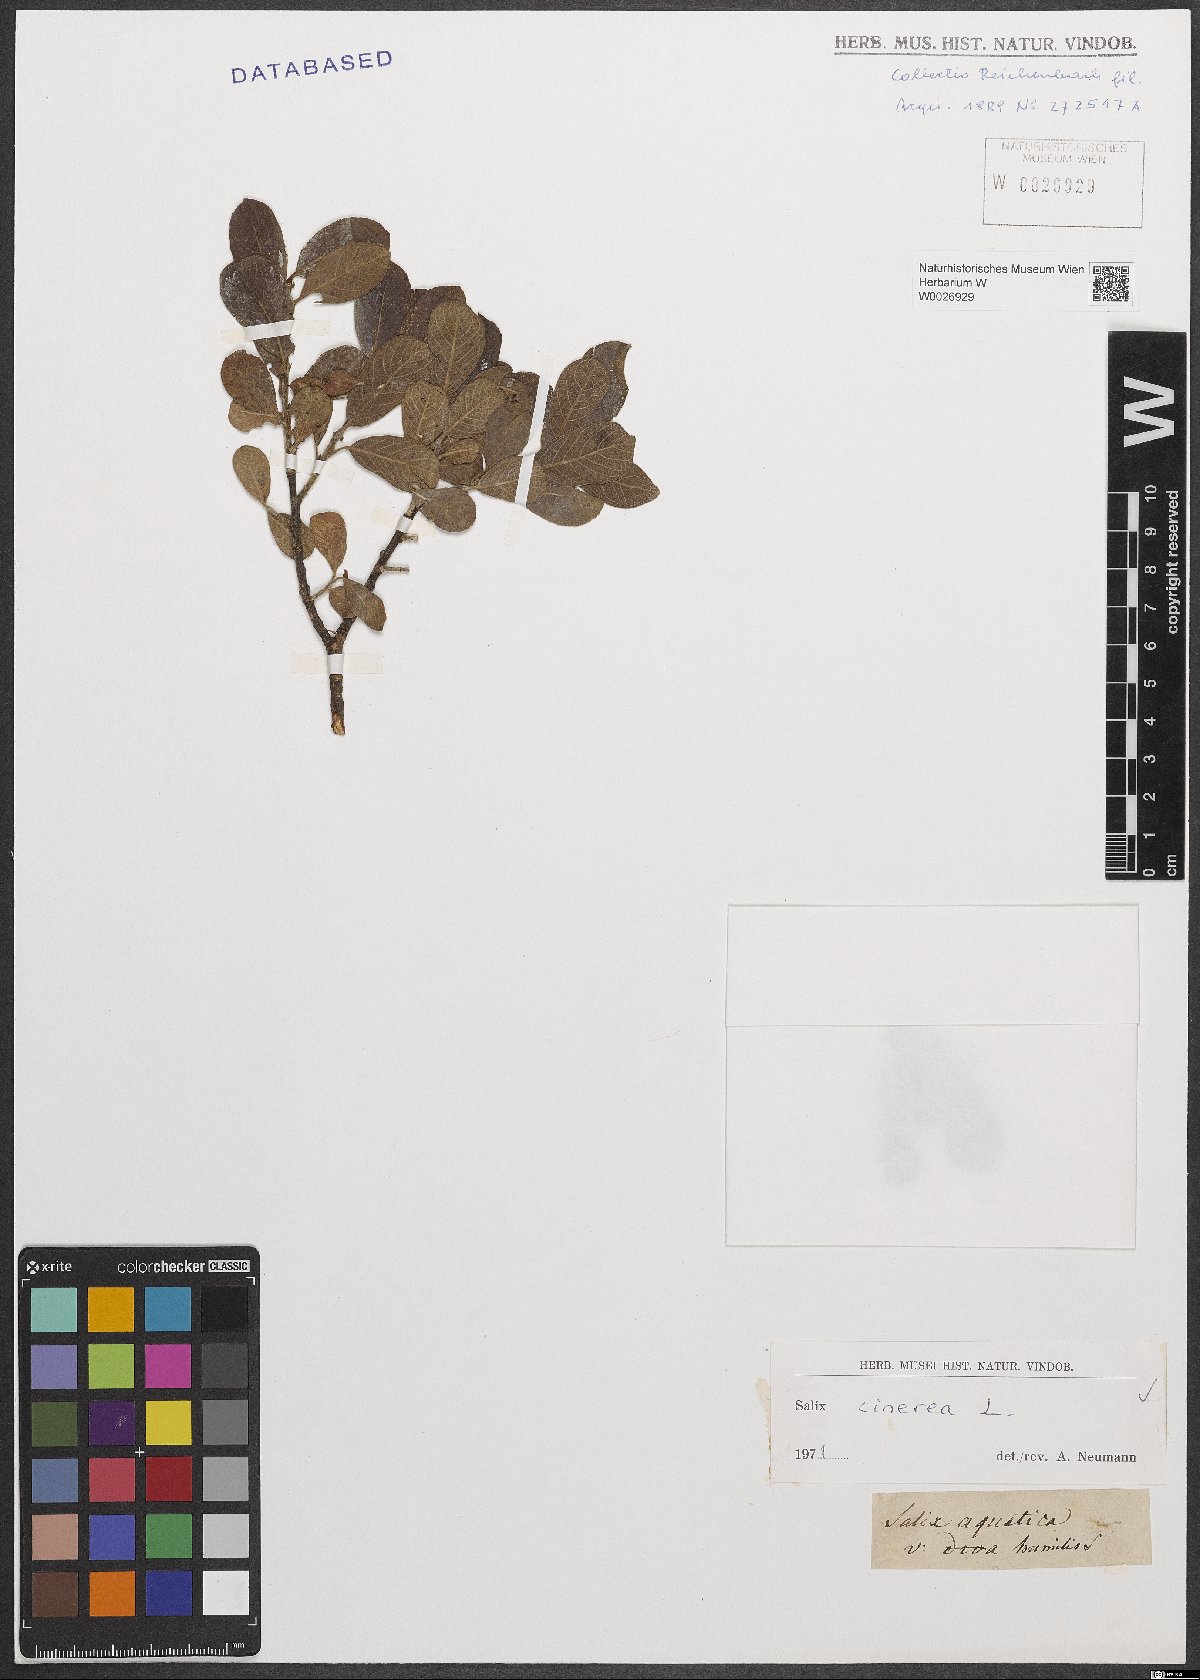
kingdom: Plantae
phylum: Tracheophyta
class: Magnoliopsida
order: Malpighiales
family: Salicaceae
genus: Salix
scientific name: Salix cinerea
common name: Common sallow
